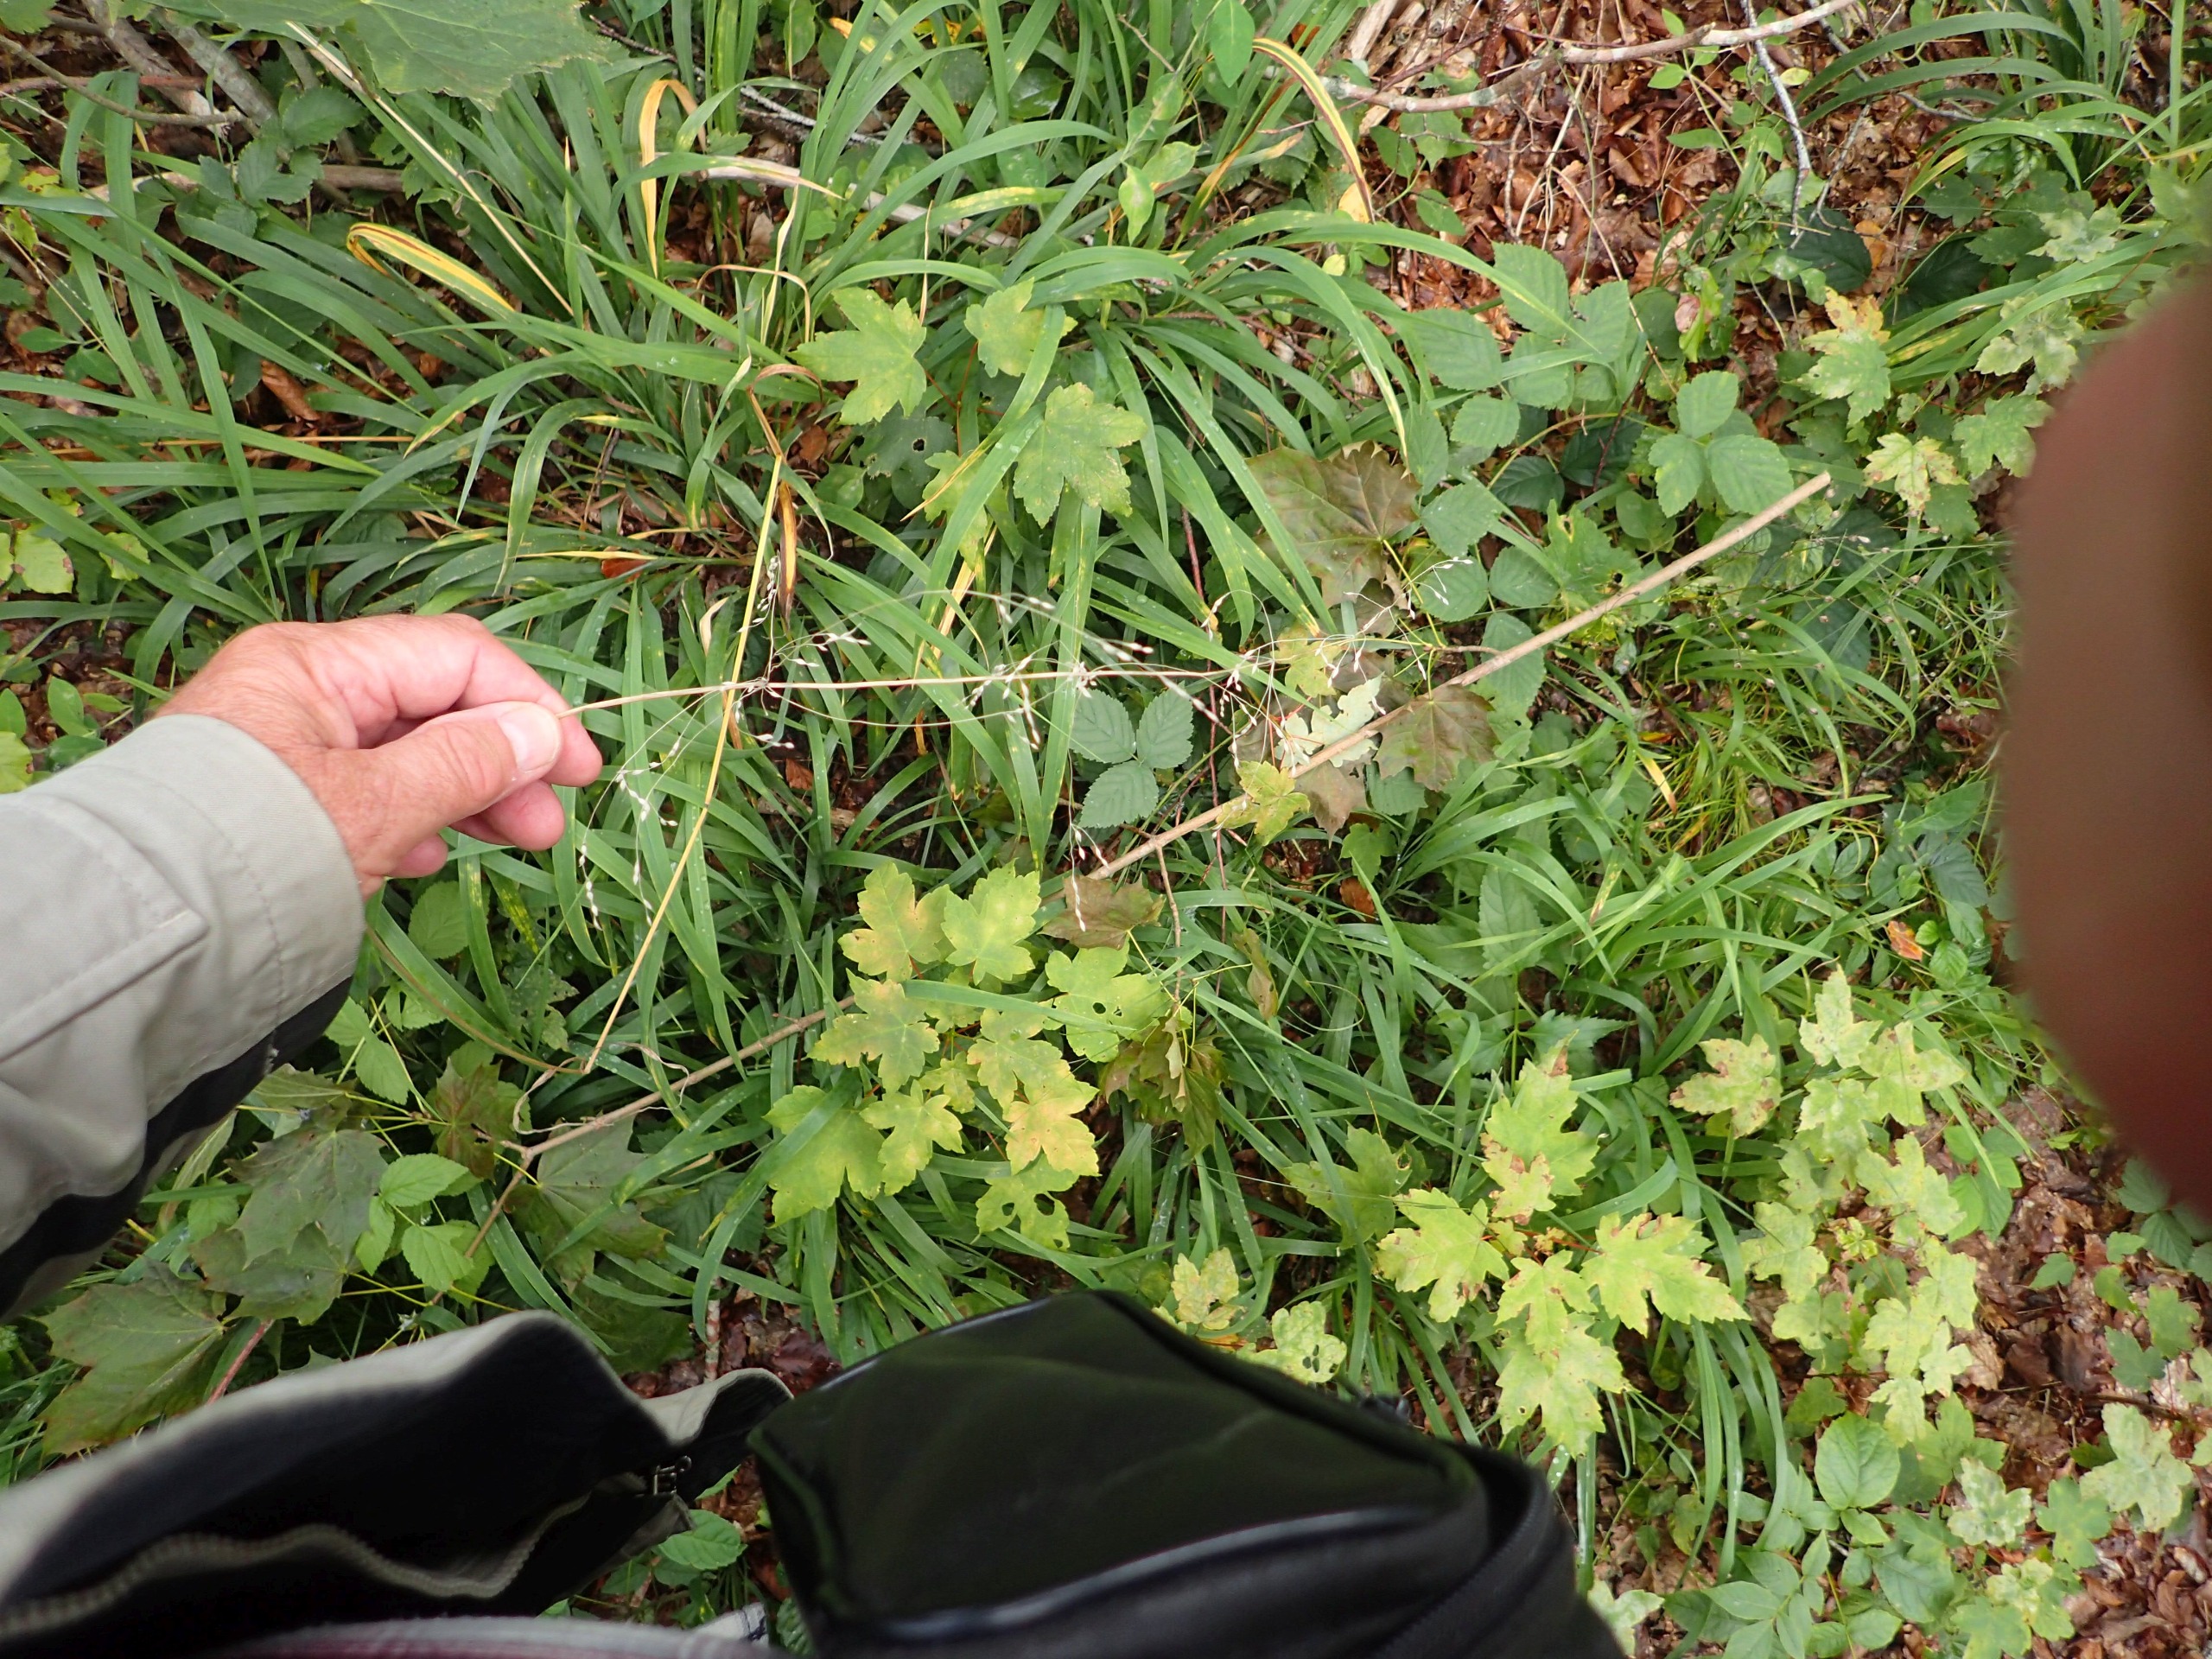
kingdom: Plantae
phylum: Tracheophyta
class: Liliopsida
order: Poales
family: Poaceae
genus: Milium
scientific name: Milium effusum
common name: Miliegræs
